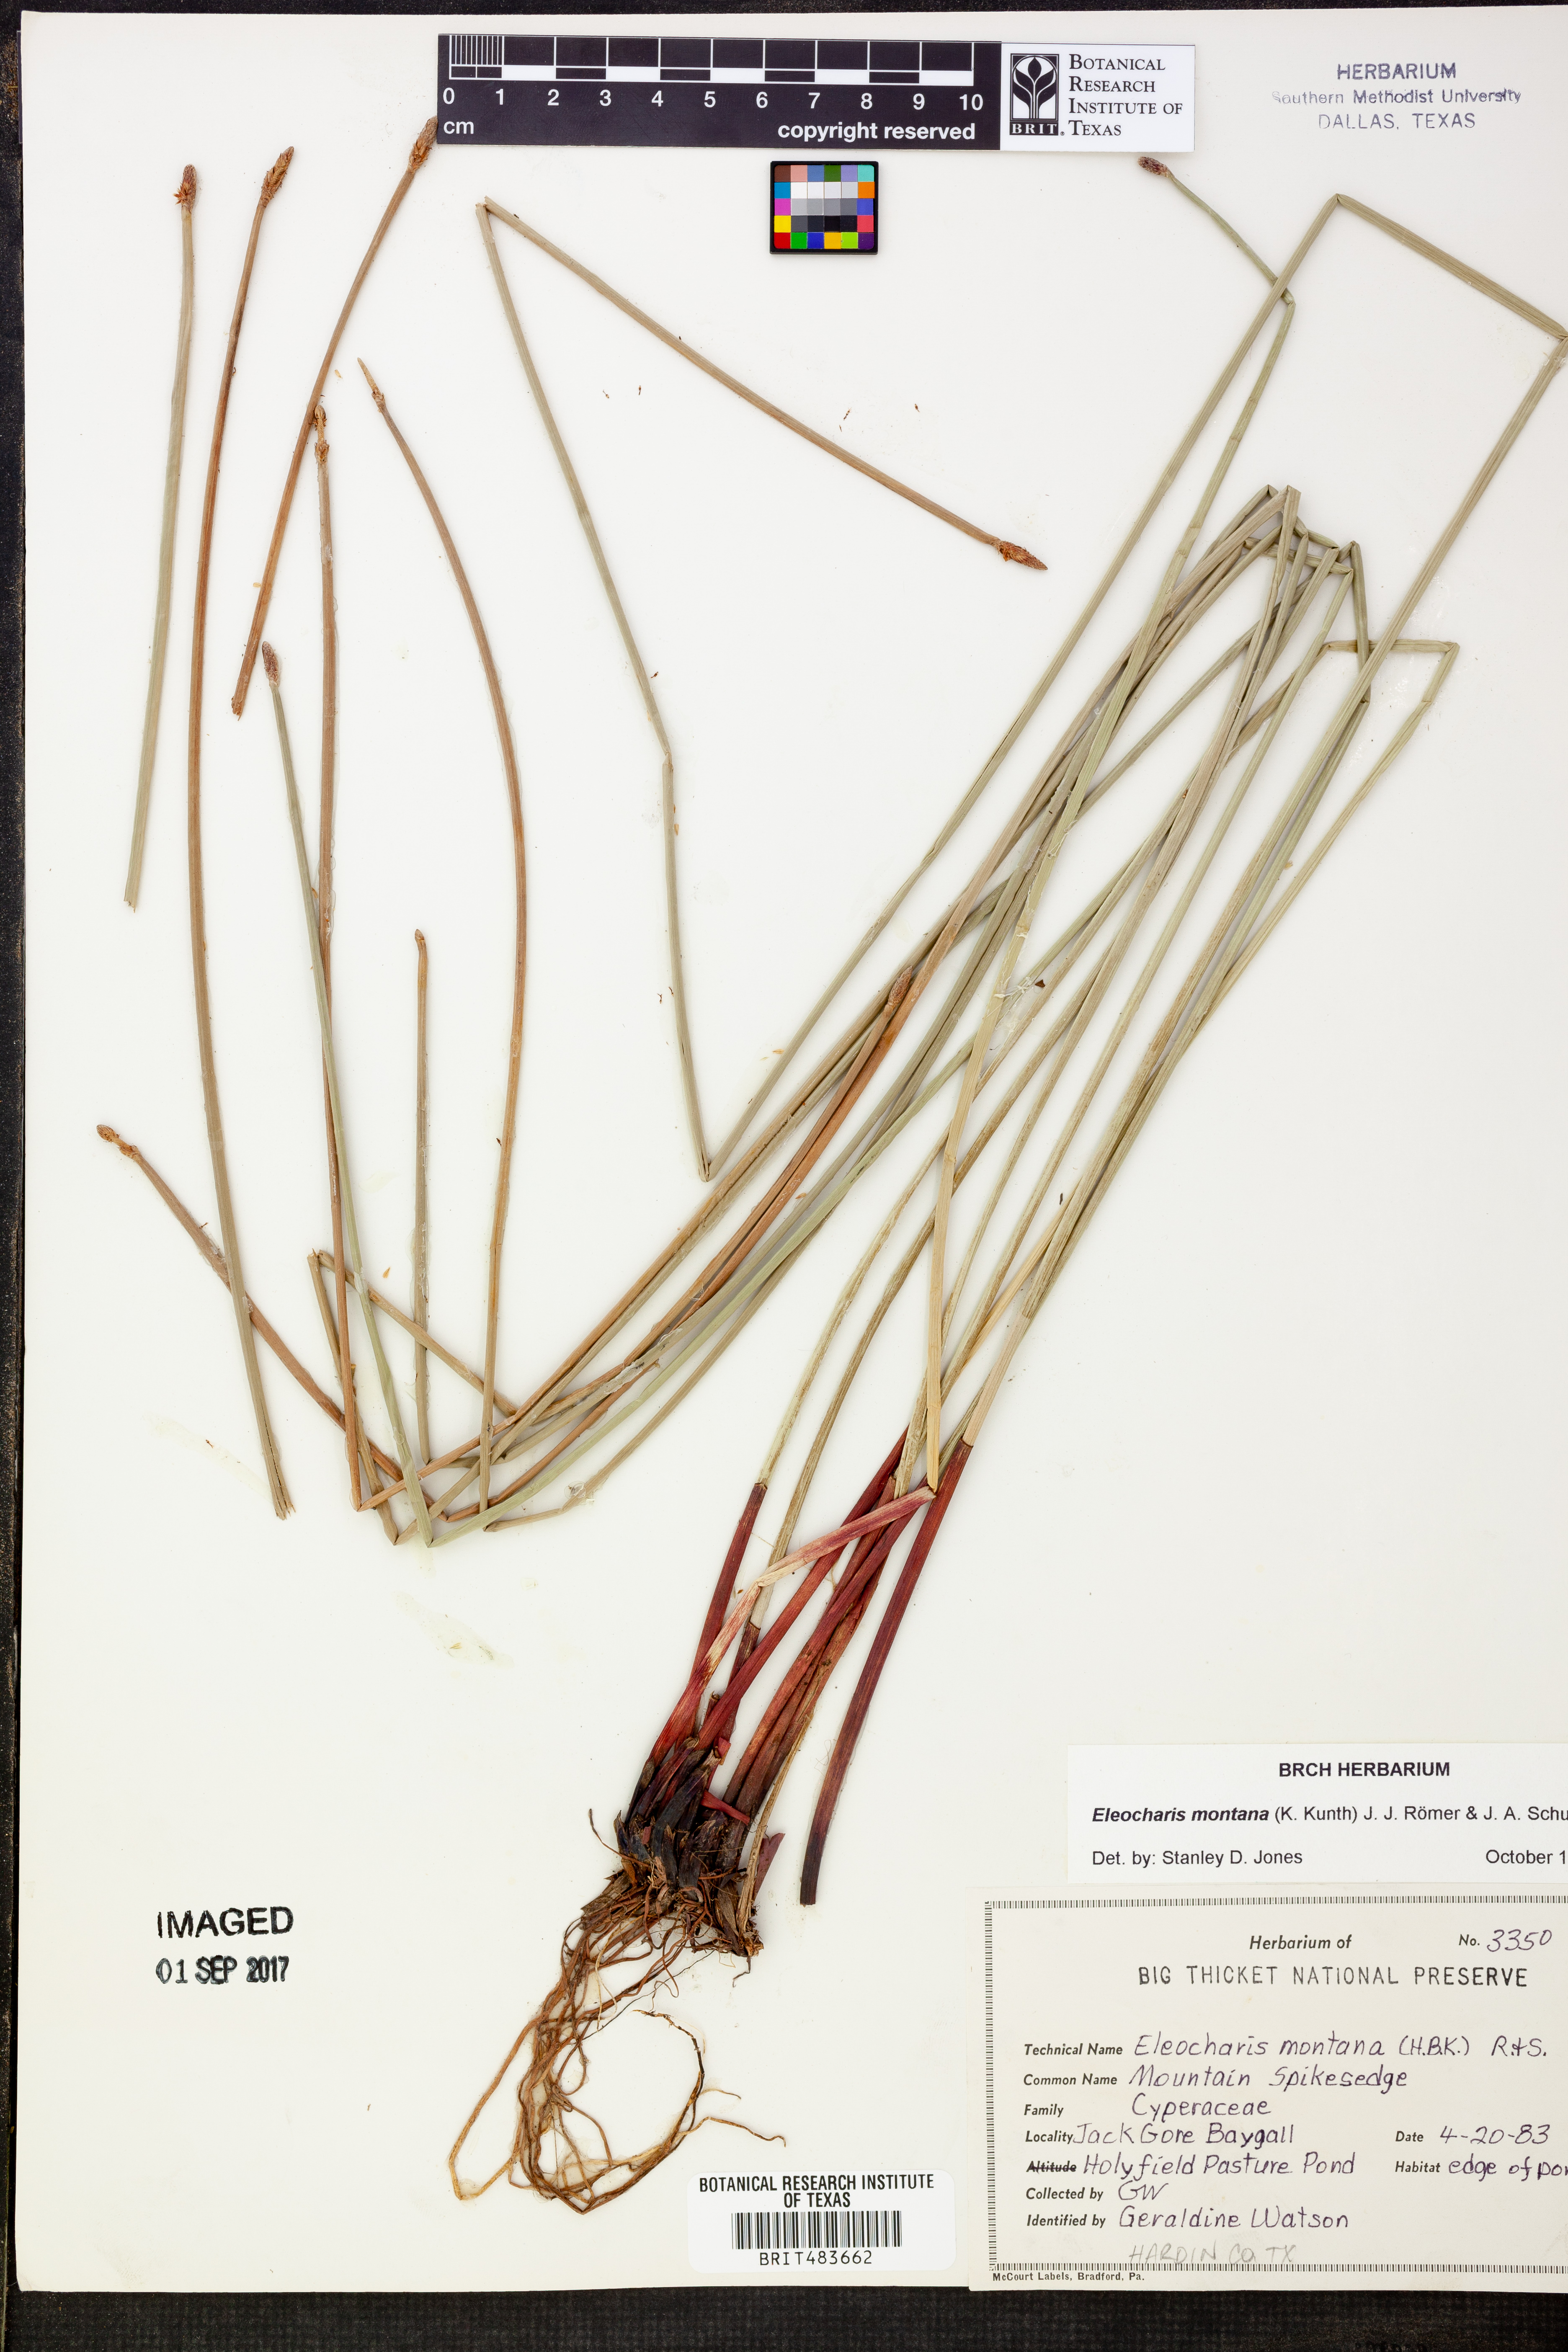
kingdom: Plantae
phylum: Tracheophyta
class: Liliopsida
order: Poales
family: Cyperaceae
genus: Eleocharis
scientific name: Eleocharis montana
